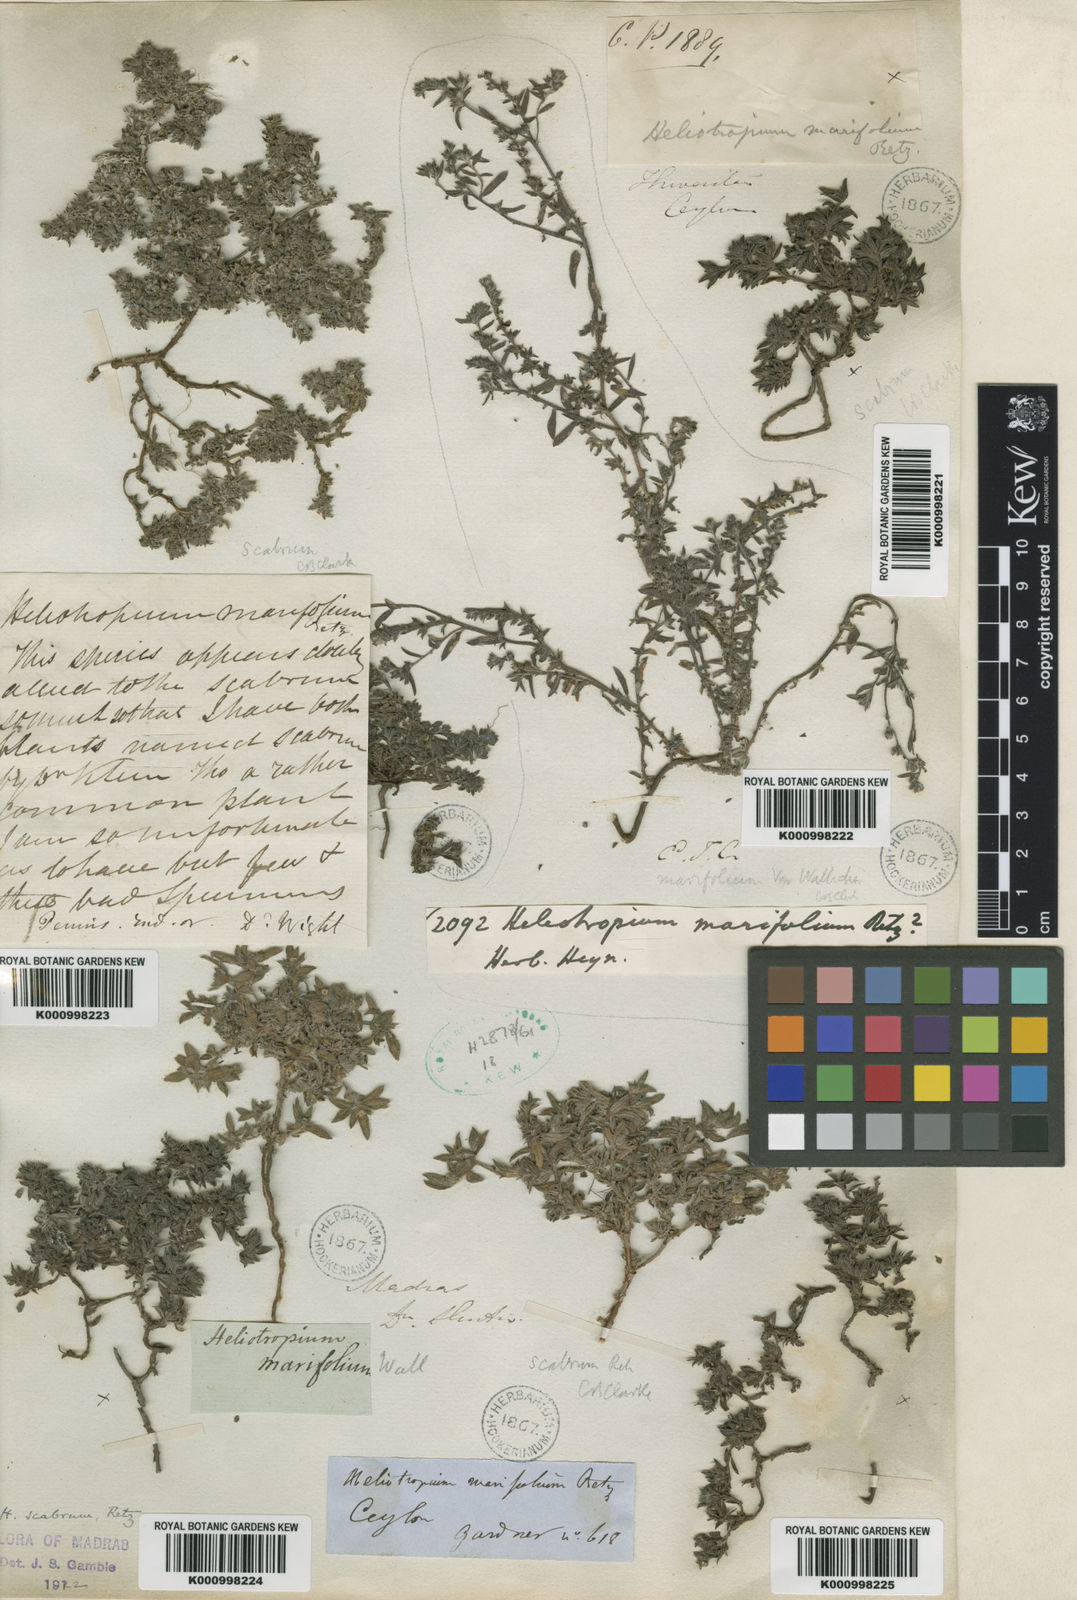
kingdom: Plantae
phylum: Tracheophyta
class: Magnoliopsida
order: Boraginales
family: Heliotropiaceae
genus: Euploca
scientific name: Euploca marifolia
